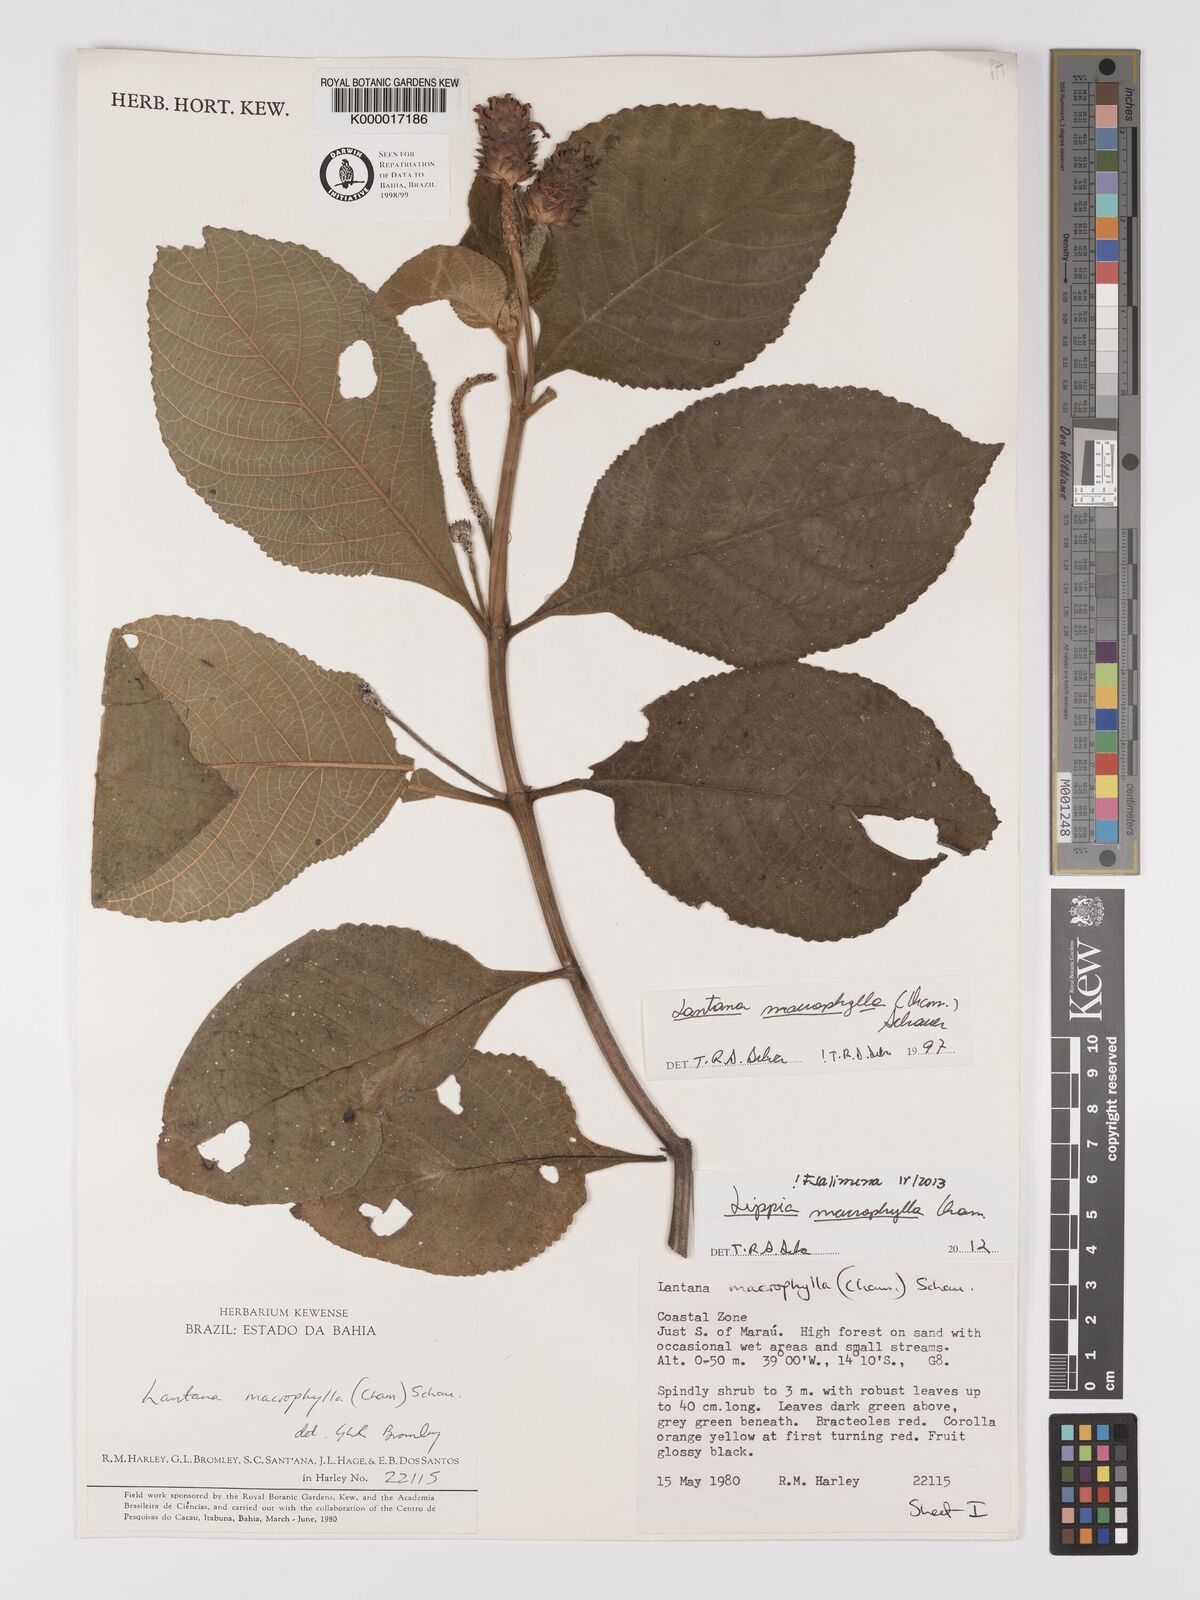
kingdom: Plantae
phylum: Tracheophyta
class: Magnoliopsida
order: Lamiales
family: Verbenaceae
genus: Lippia
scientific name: Lippia macrophylla
